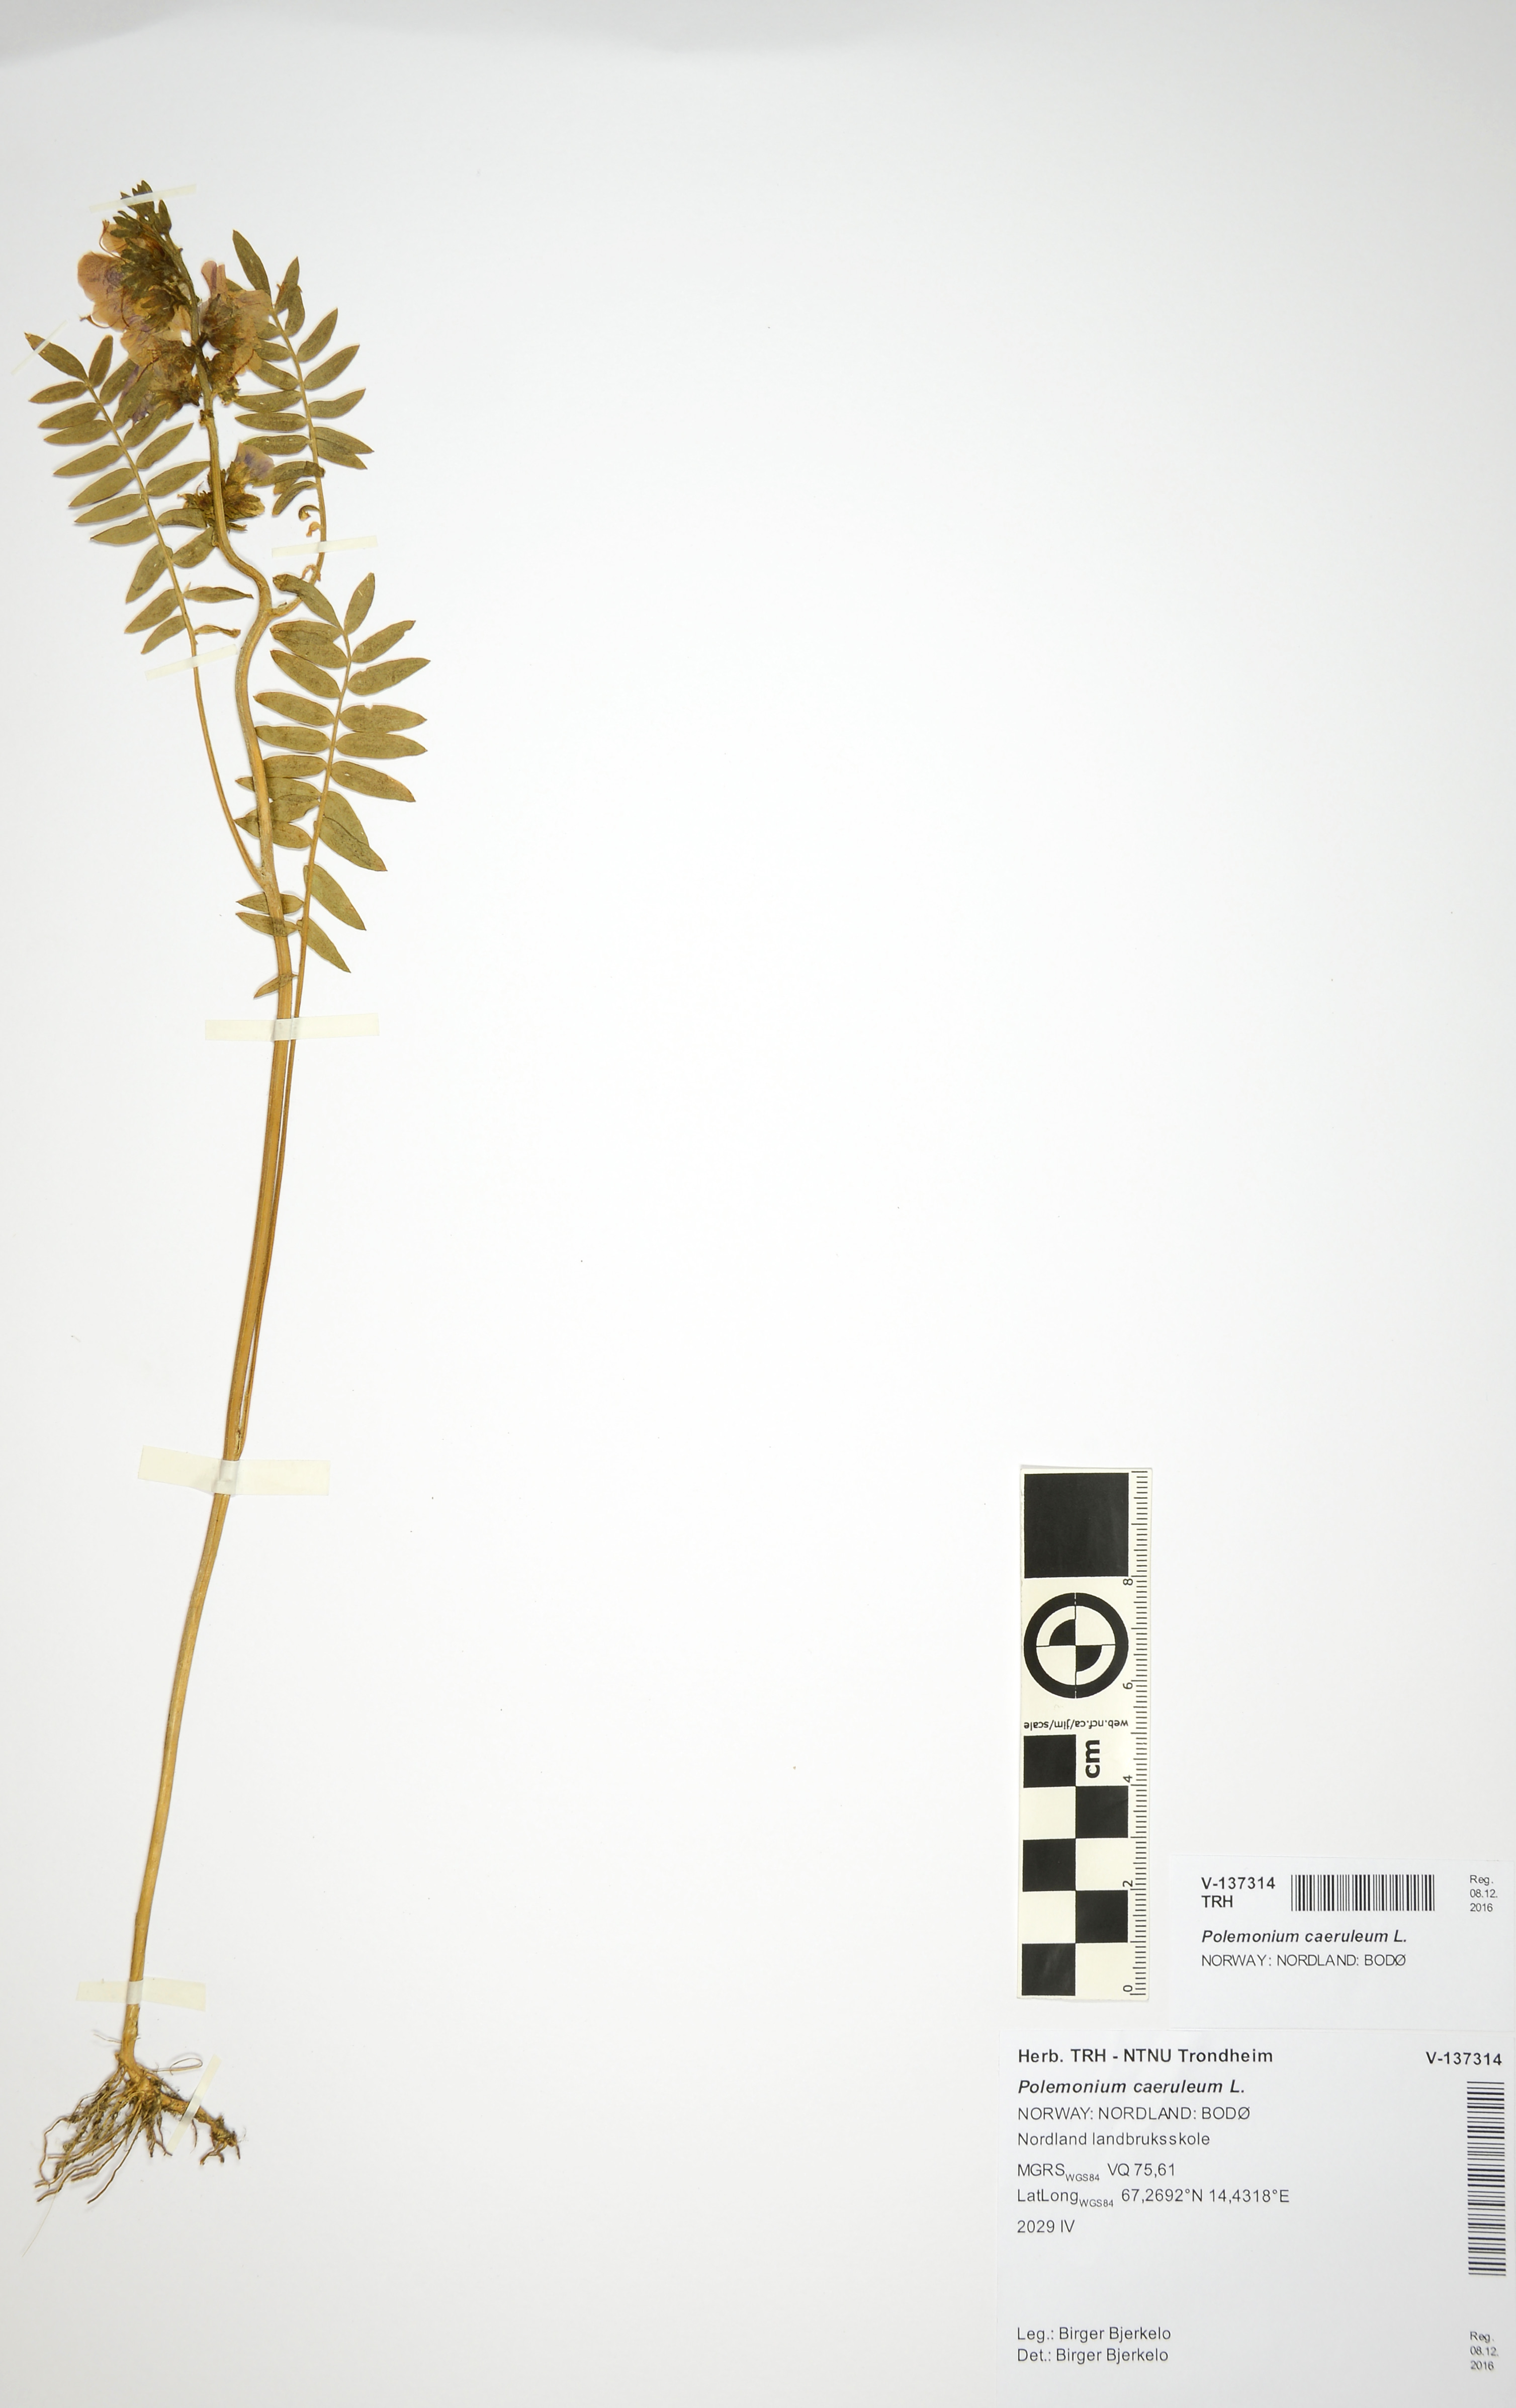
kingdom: Plantae
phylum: Tracheophyta
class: Magnoliopsida
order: Ericales
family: Polemoniaceae
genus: Polemonium
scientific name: Polemonium caeruleum
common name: Jacob's-ladder
